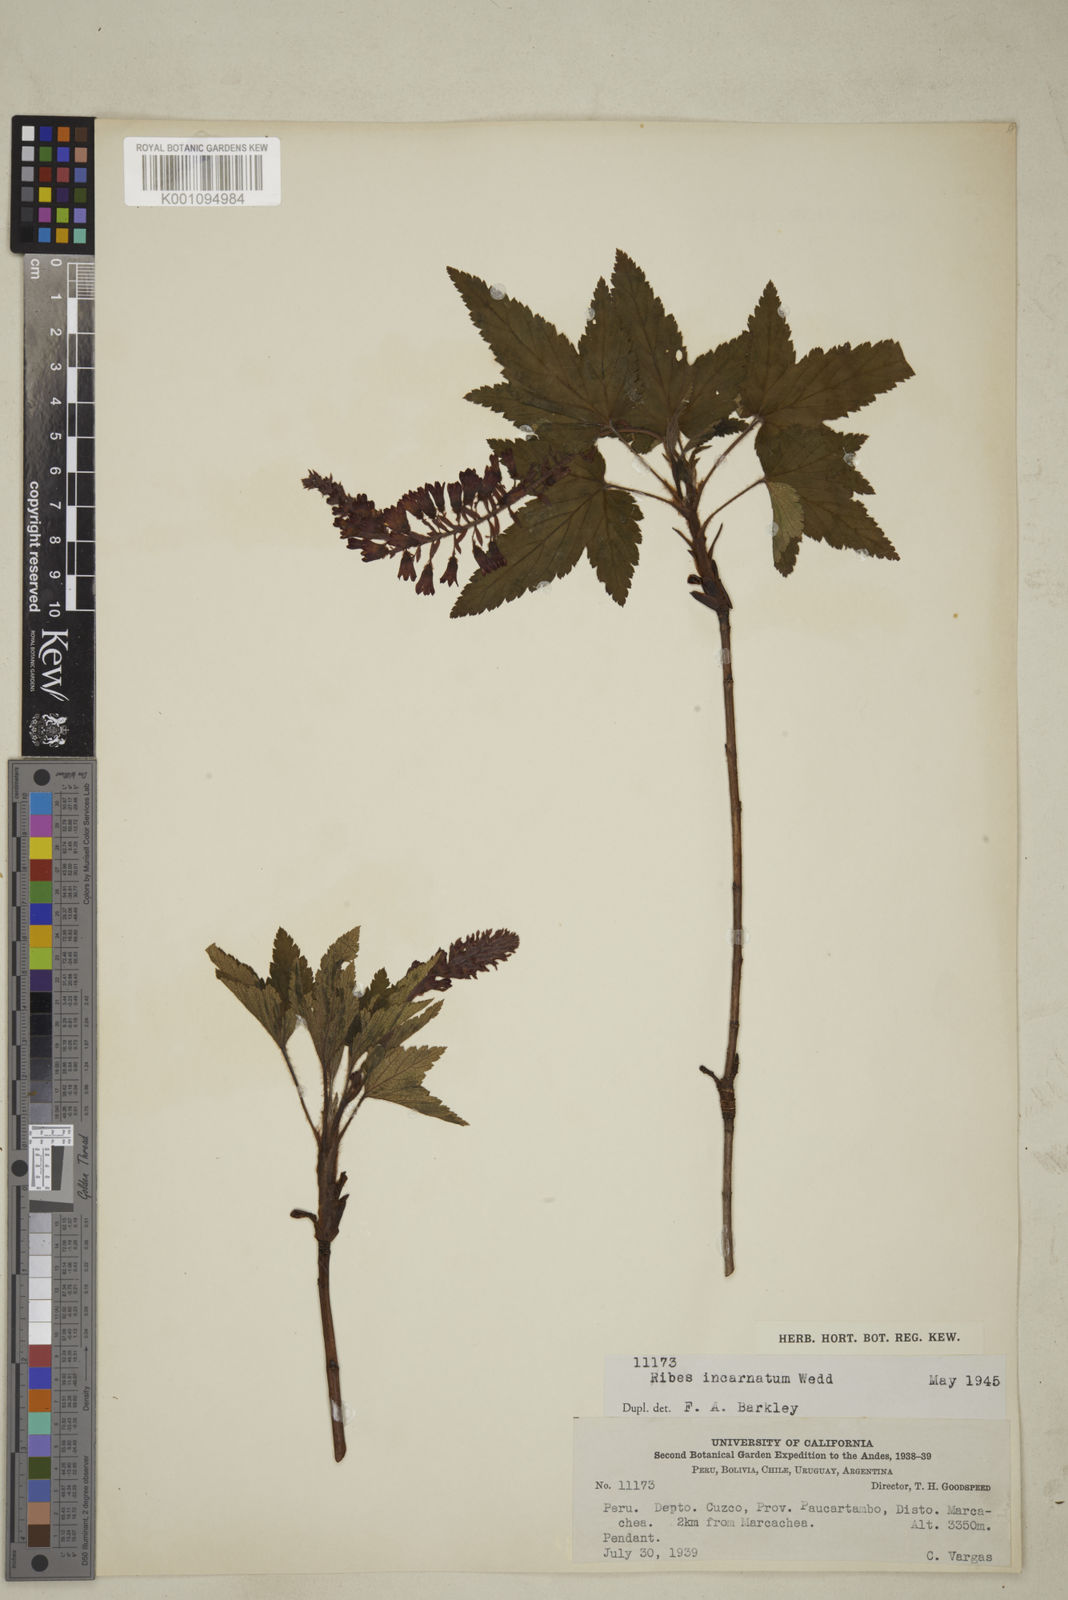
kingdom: Plantae
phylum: Tracheophyta
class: Magnoliopsida
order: Saxifragales
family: Grossulariaceae
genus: Ribes
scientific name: Ribes incarnatum
